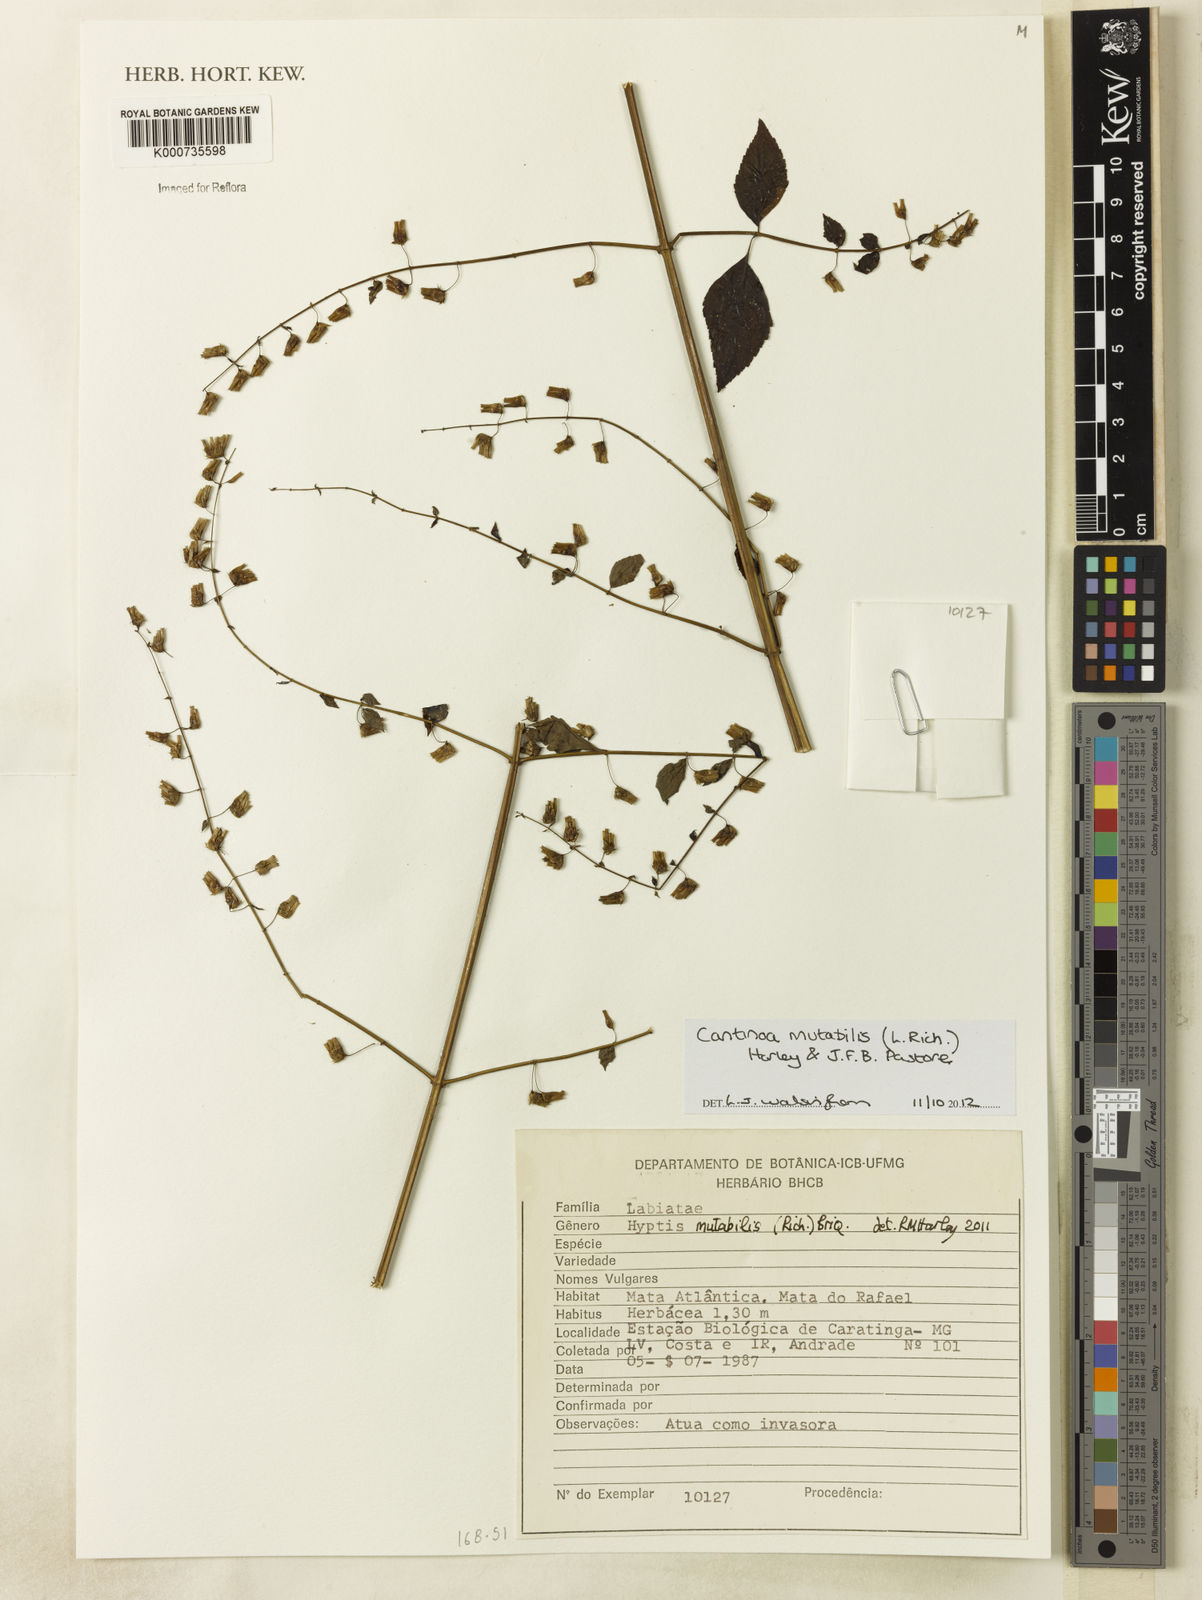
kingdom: Plantae
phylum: Tracheophyta
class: Magnoliopsida
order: Lamiales
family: Lamiaceae
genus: Cantinoa
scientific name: Cantinoa mutabilis
